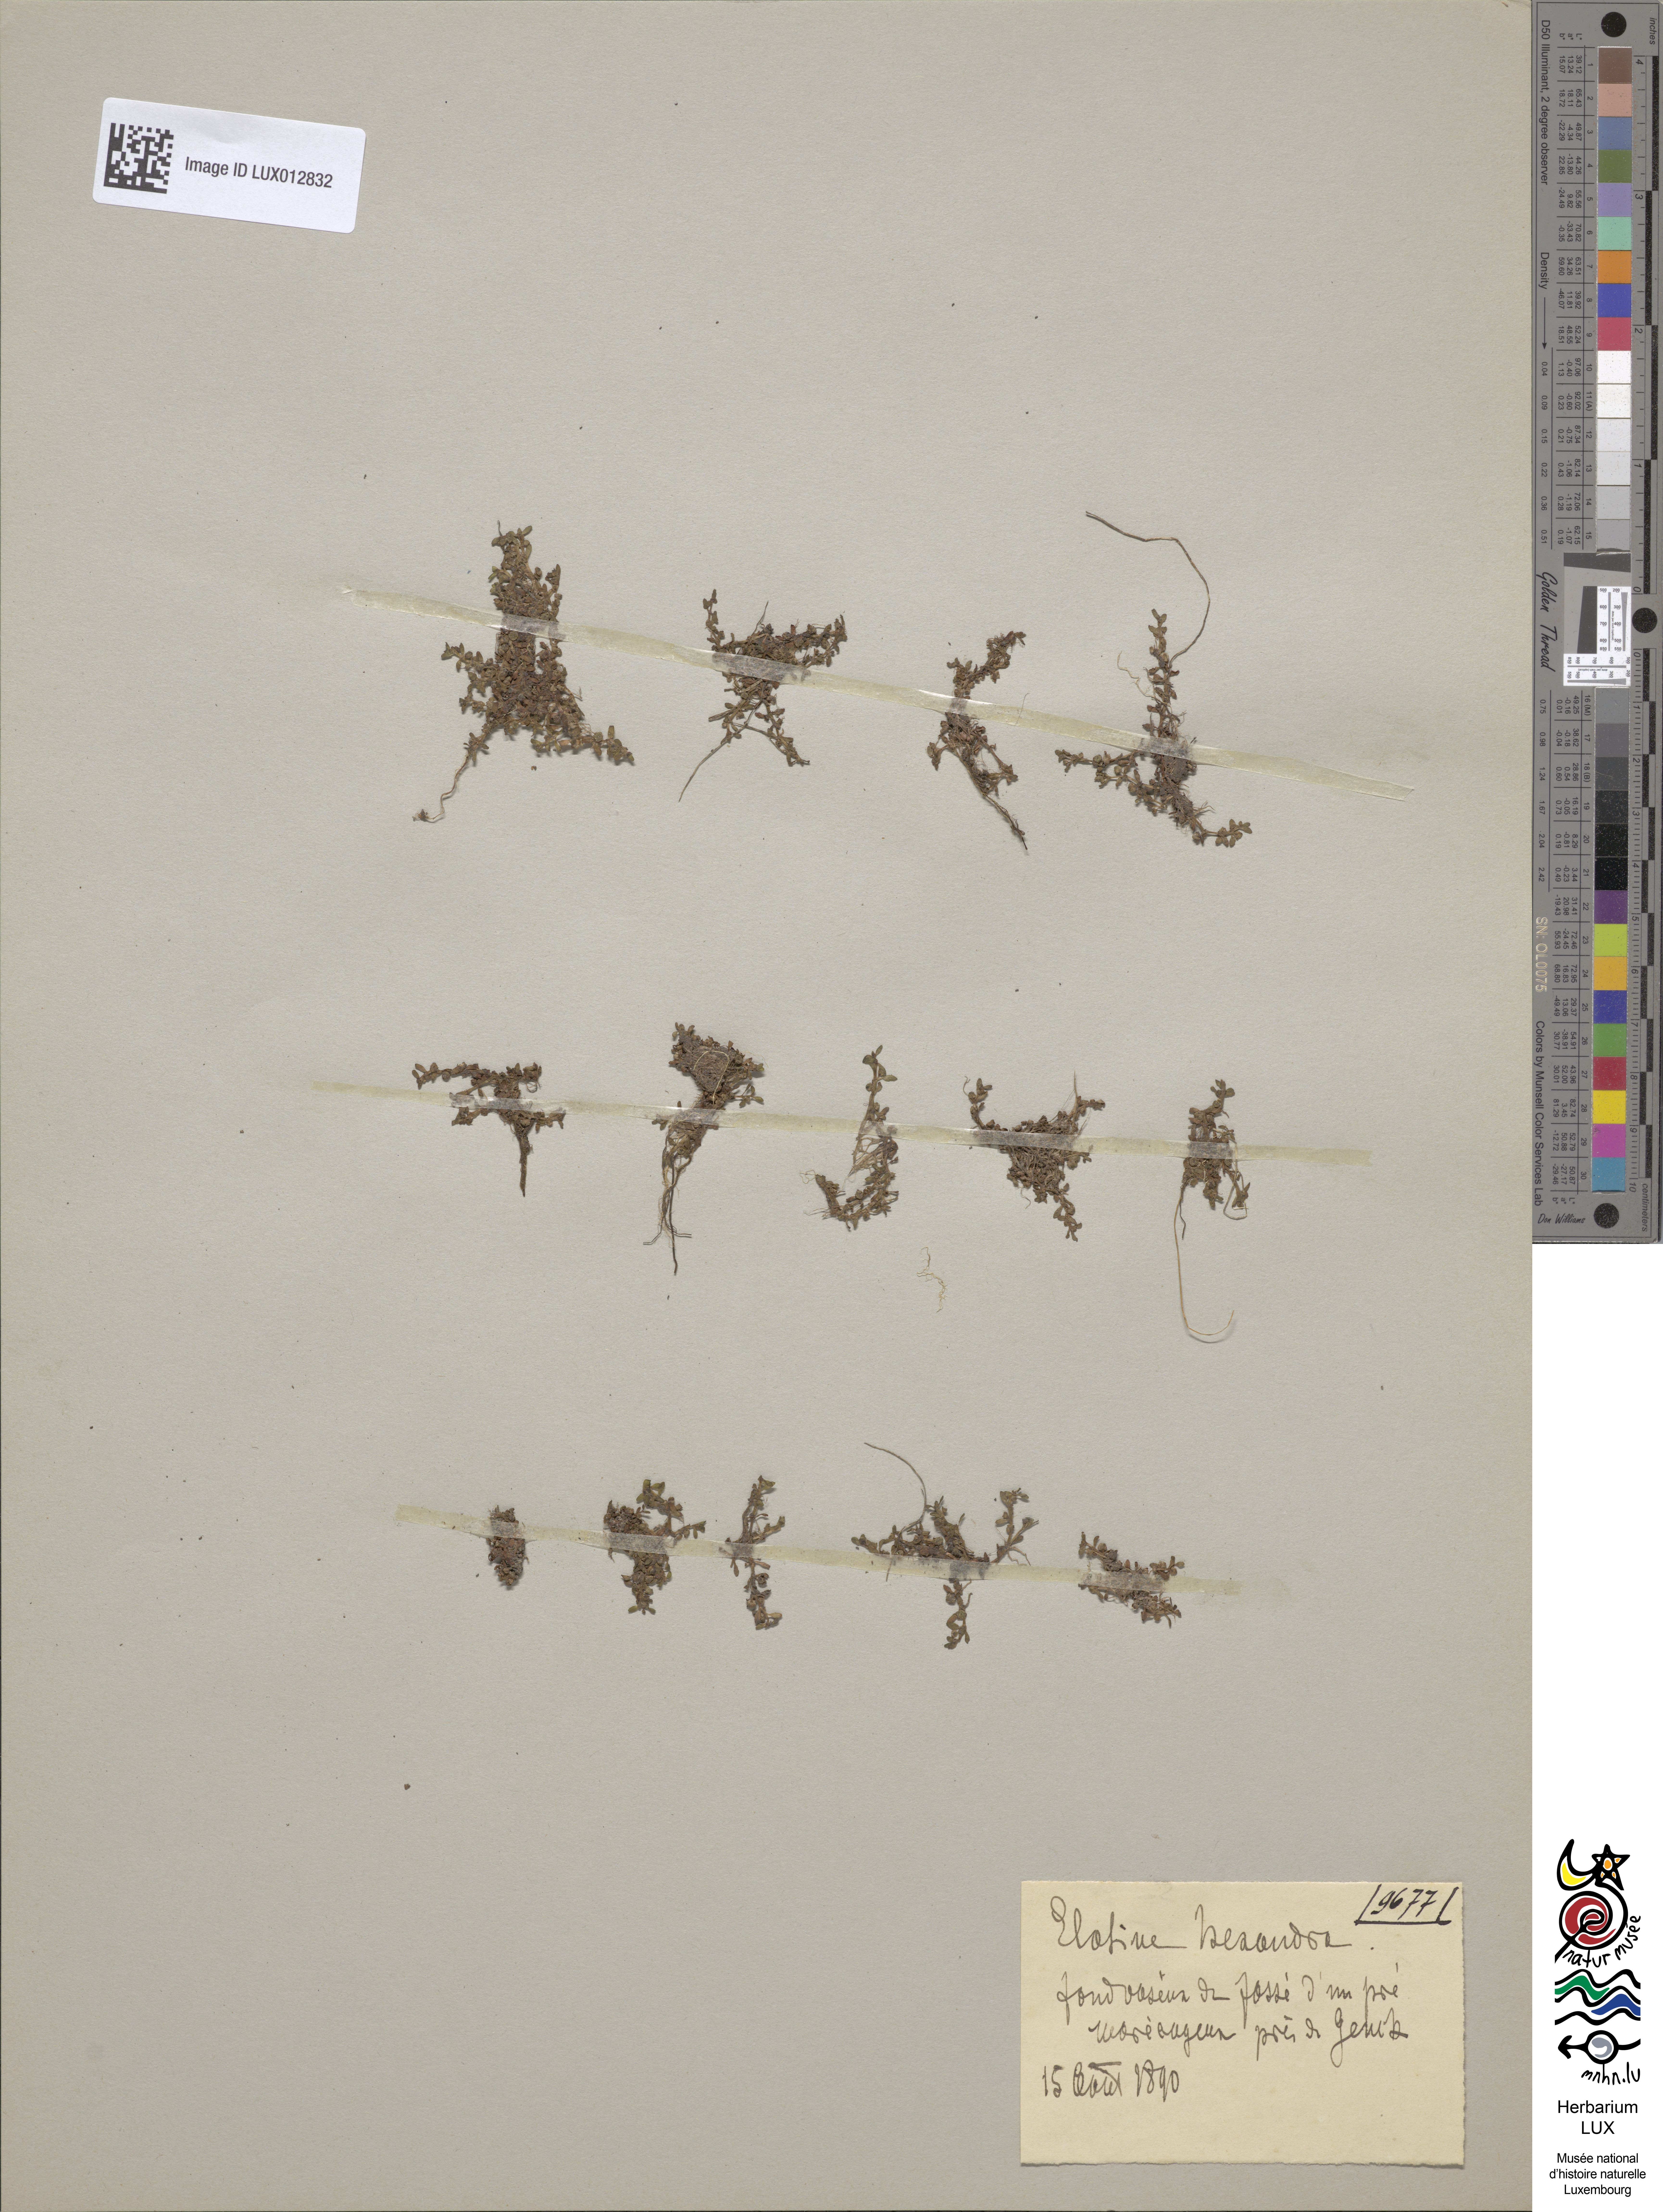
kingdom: Plantae
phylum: Tracheophyta
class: Magnoliopsida
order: Malpighiales
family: Elatinaceae
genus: Elatine
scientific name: Elatine hexandra
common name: Six-stamened waterwort
